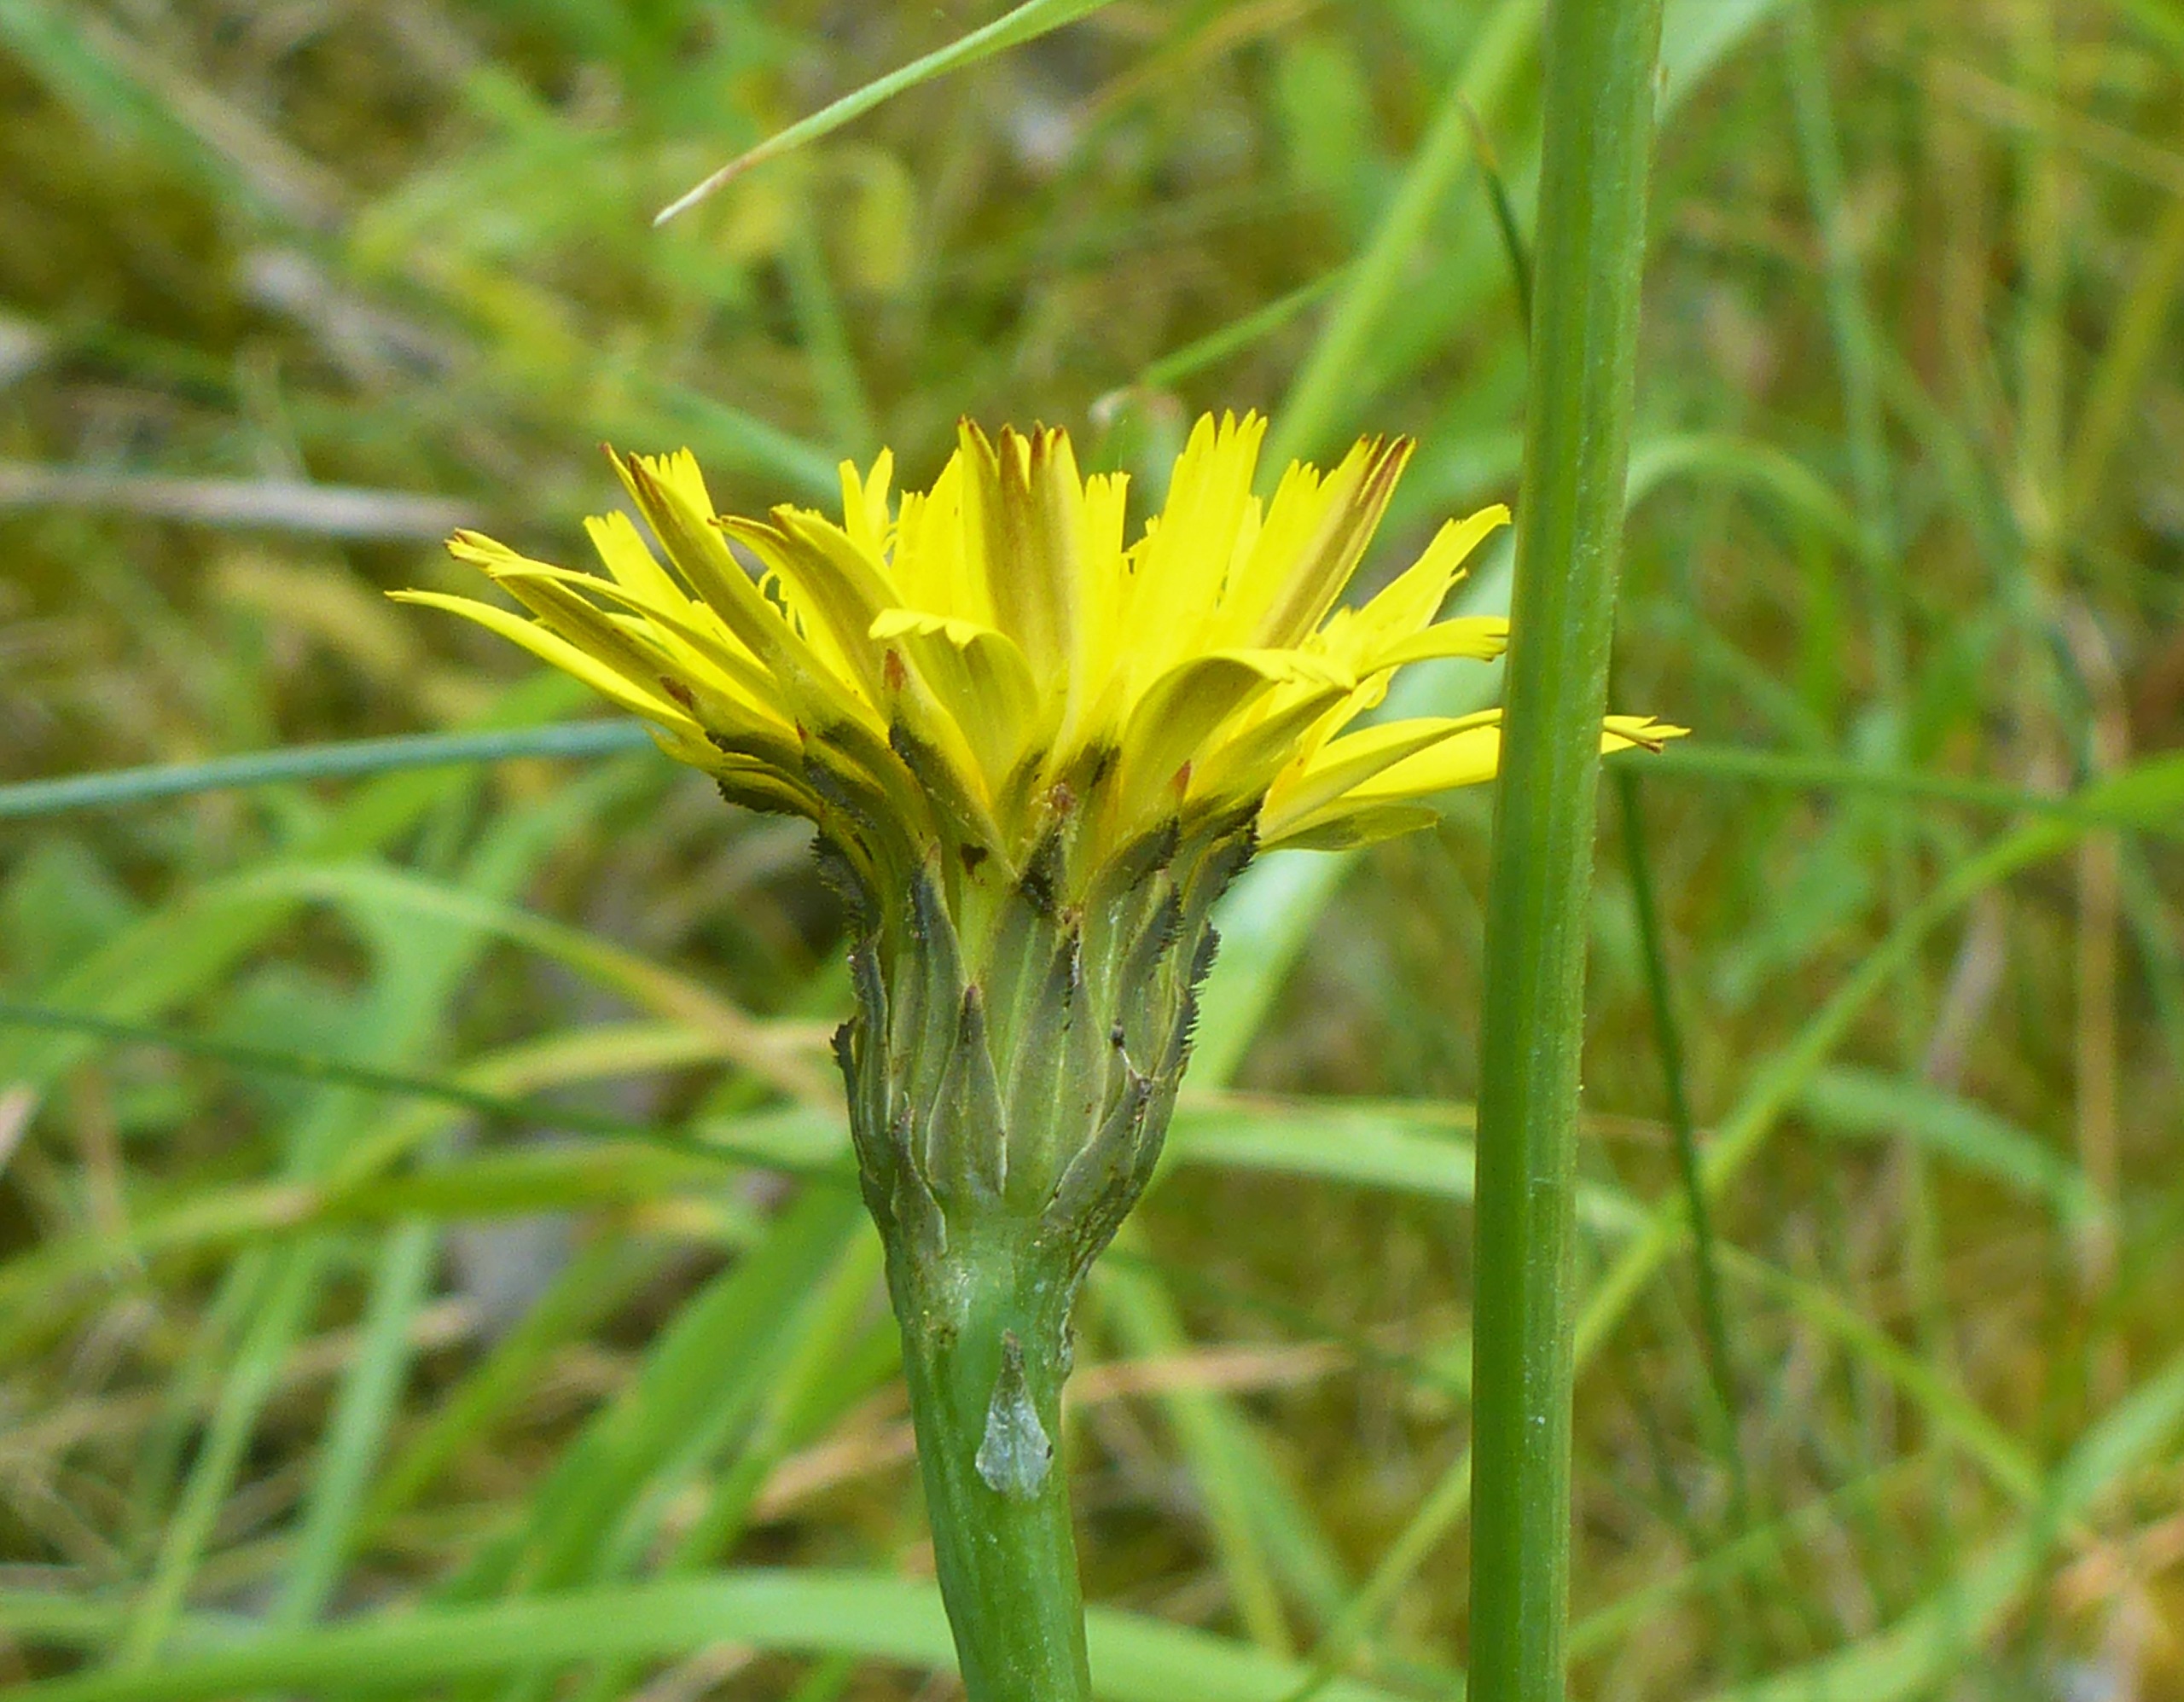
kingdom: Plantae
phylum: Tracheophyta
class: Magnoliopsida
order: Asterales
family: Asteraceae
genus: Hypochaeris
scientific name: Hypochaeris radicata
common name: Almindelig kongepen
